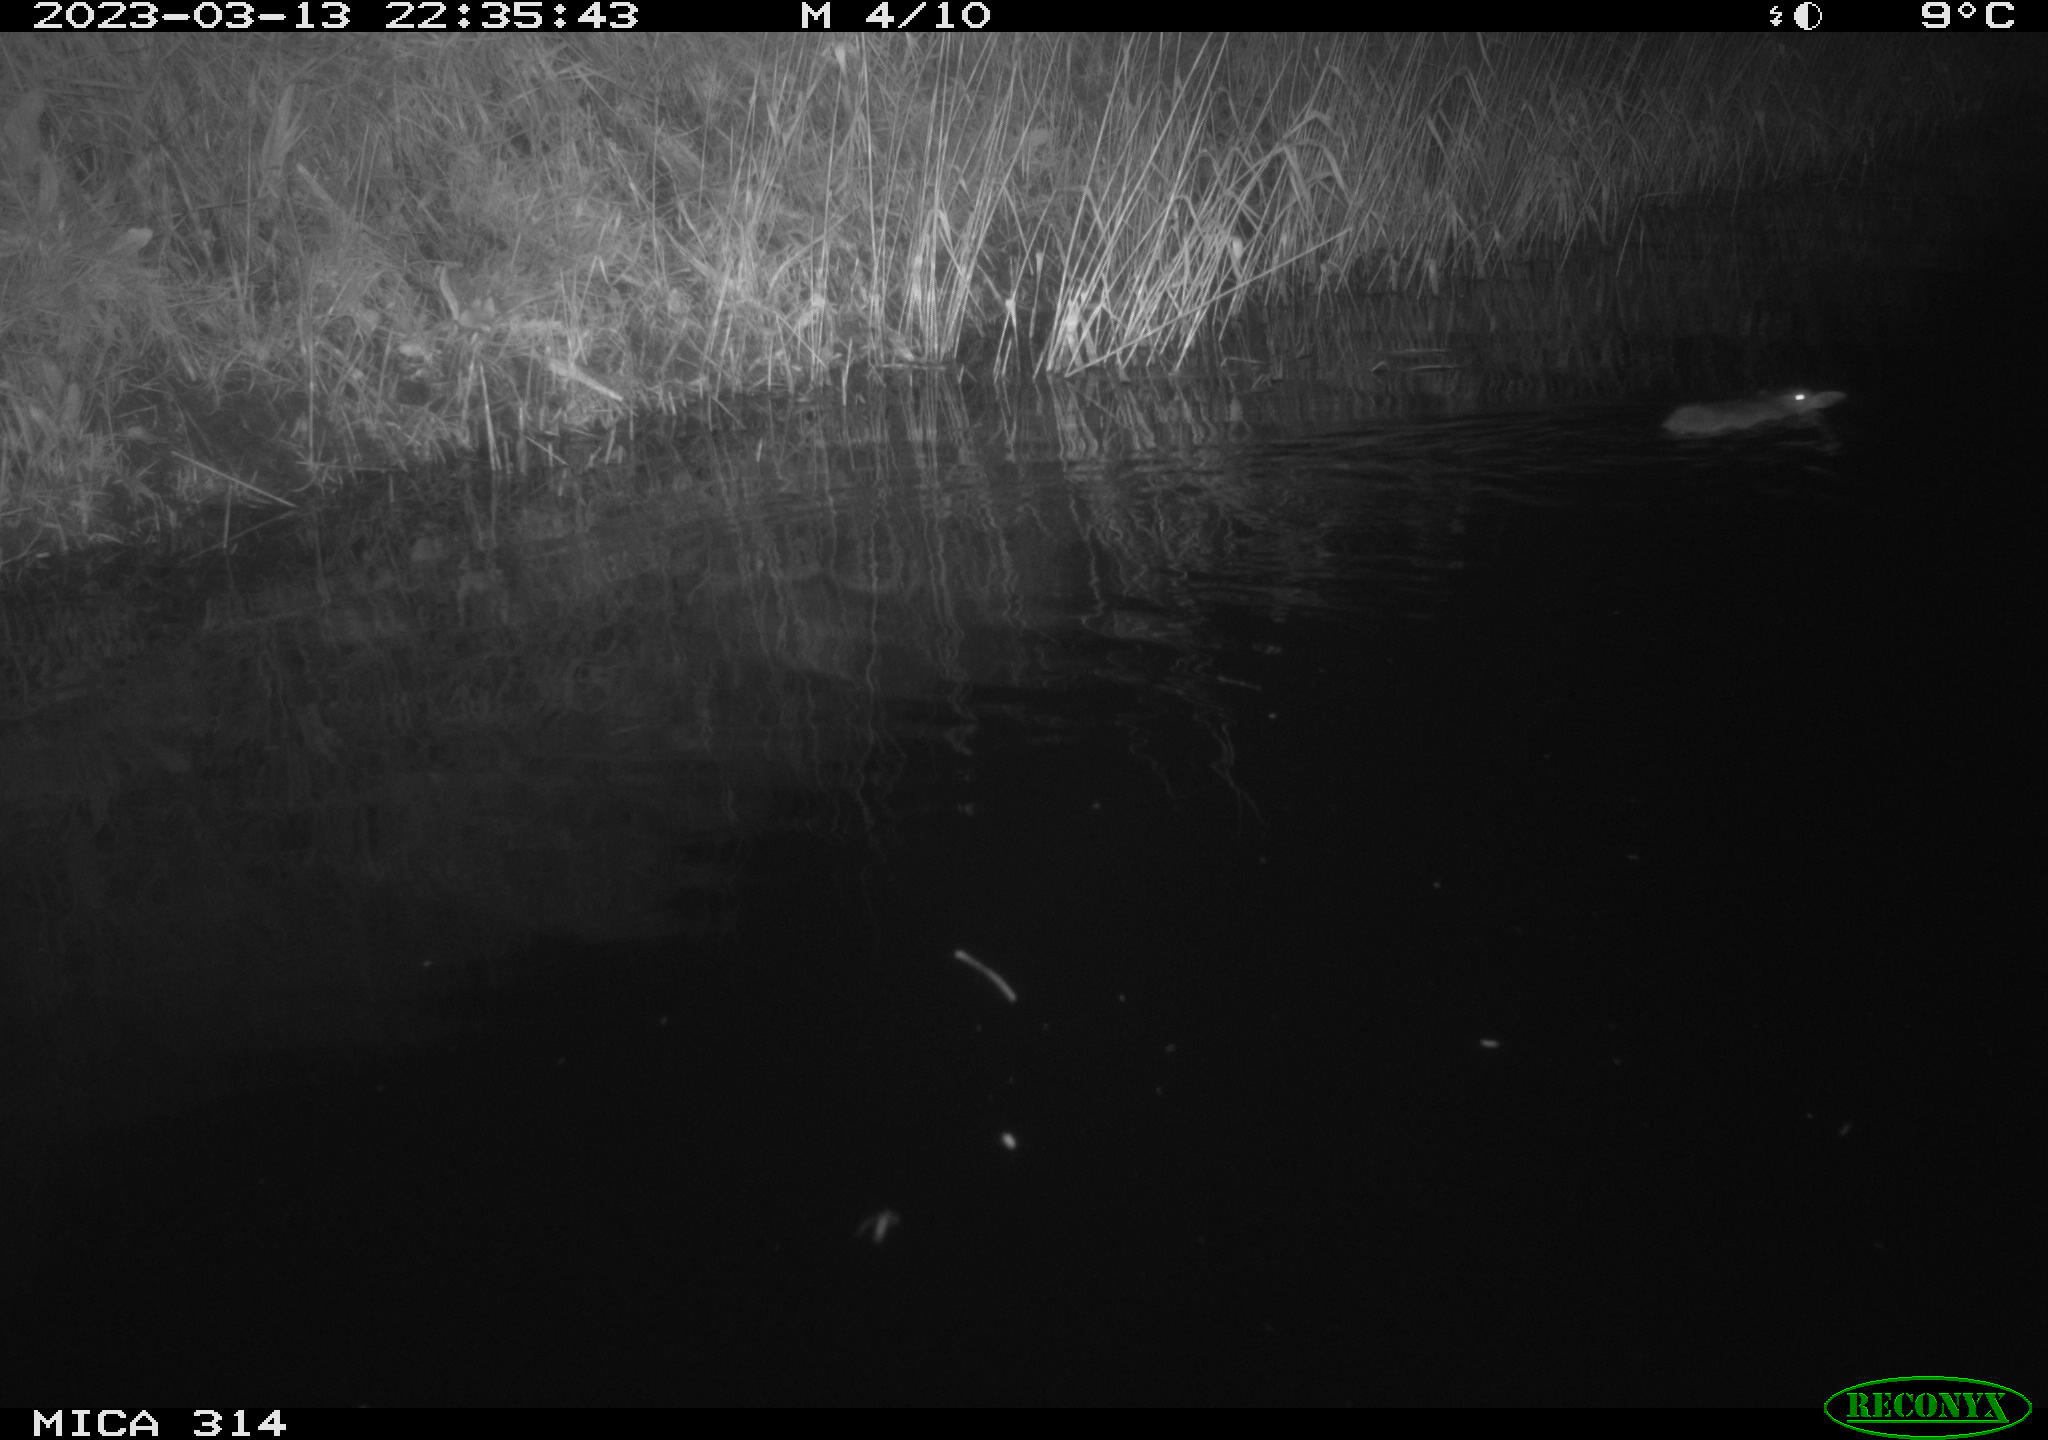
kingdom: Animalia
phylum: Chordata
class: Mammalia
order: Rodentia
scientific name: Rodentia
